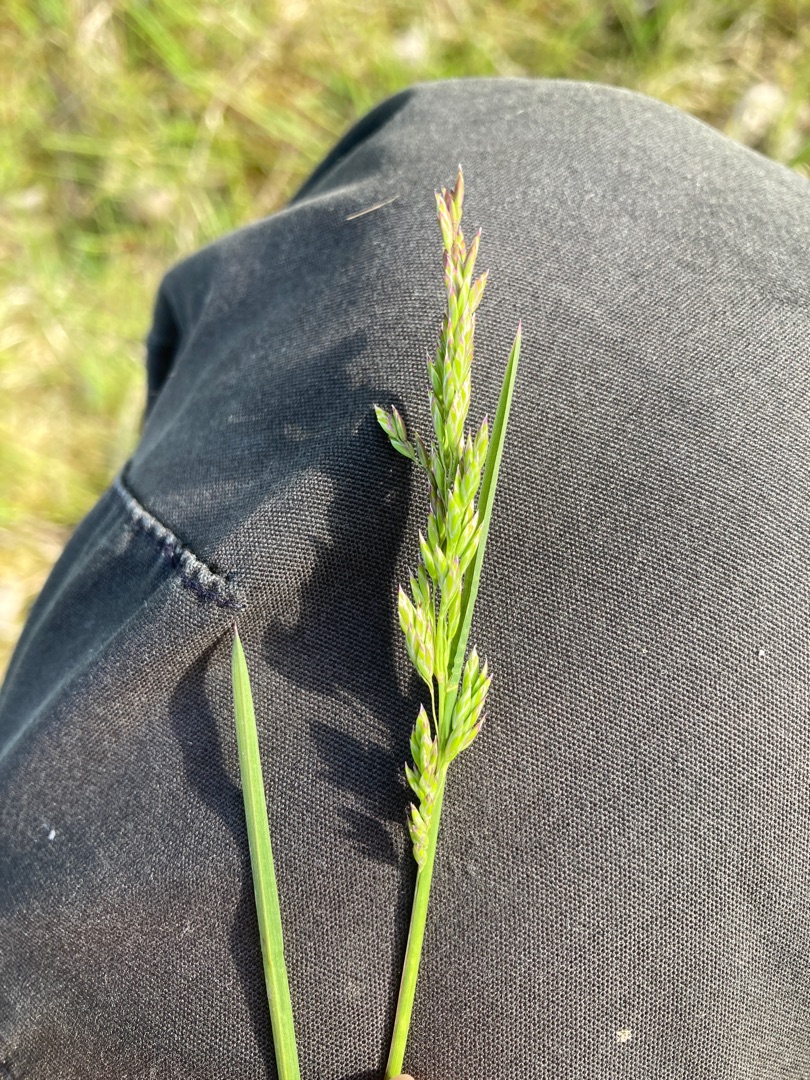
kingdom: Plantae
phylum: Tracheophyta
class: Liliopsida
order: Poales
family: Poaceae
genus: Poa
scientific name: Poa compressa
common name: Fladstrået rapgræs
